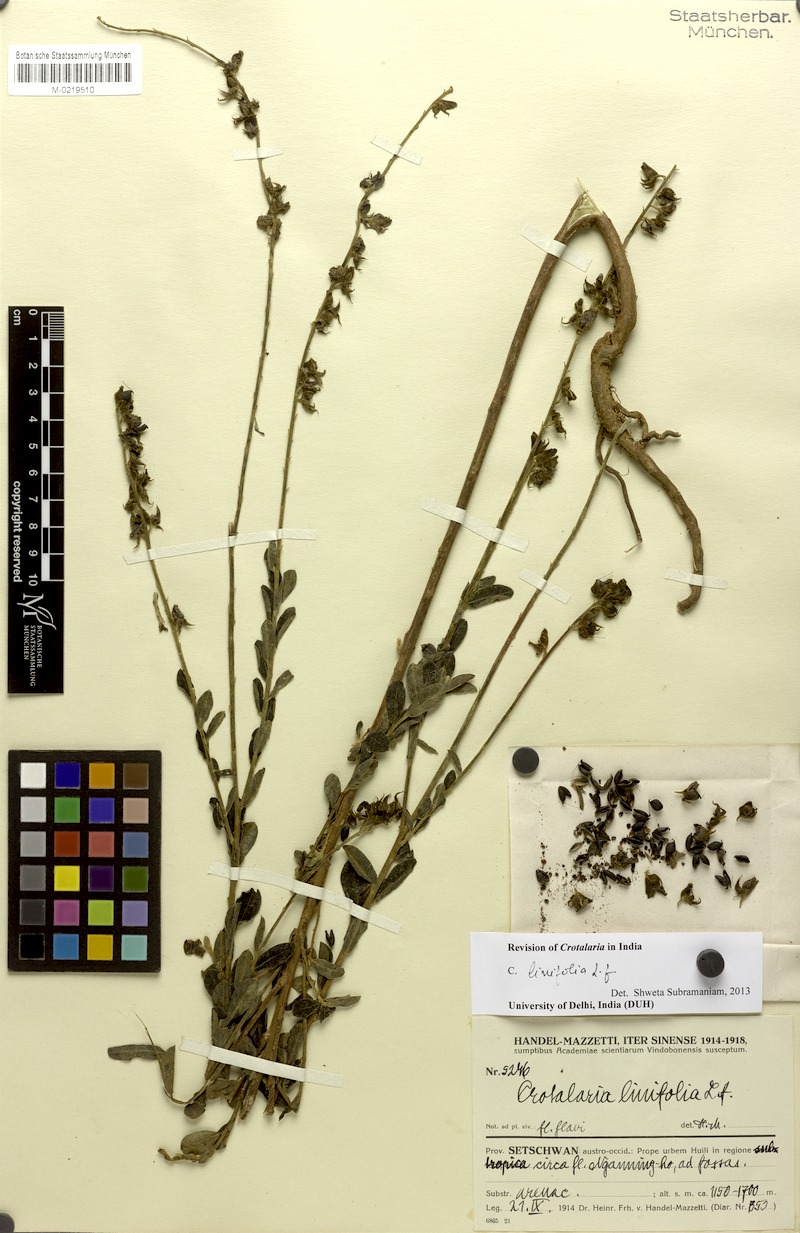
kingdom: Plantae
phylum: Tracheophyta
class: Magnoliopsida
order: Fabales
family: Fabaceae
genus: Crotalaria
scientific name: Crotalaria linifolia
